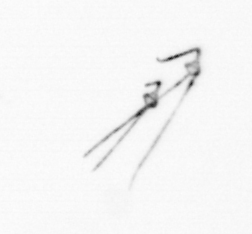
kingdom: Chromista
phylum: Myzozoa
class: Dinophyceae
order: Gonyaulacales
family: Ceratiaceae
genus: Ceratium
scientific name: Ceratium
